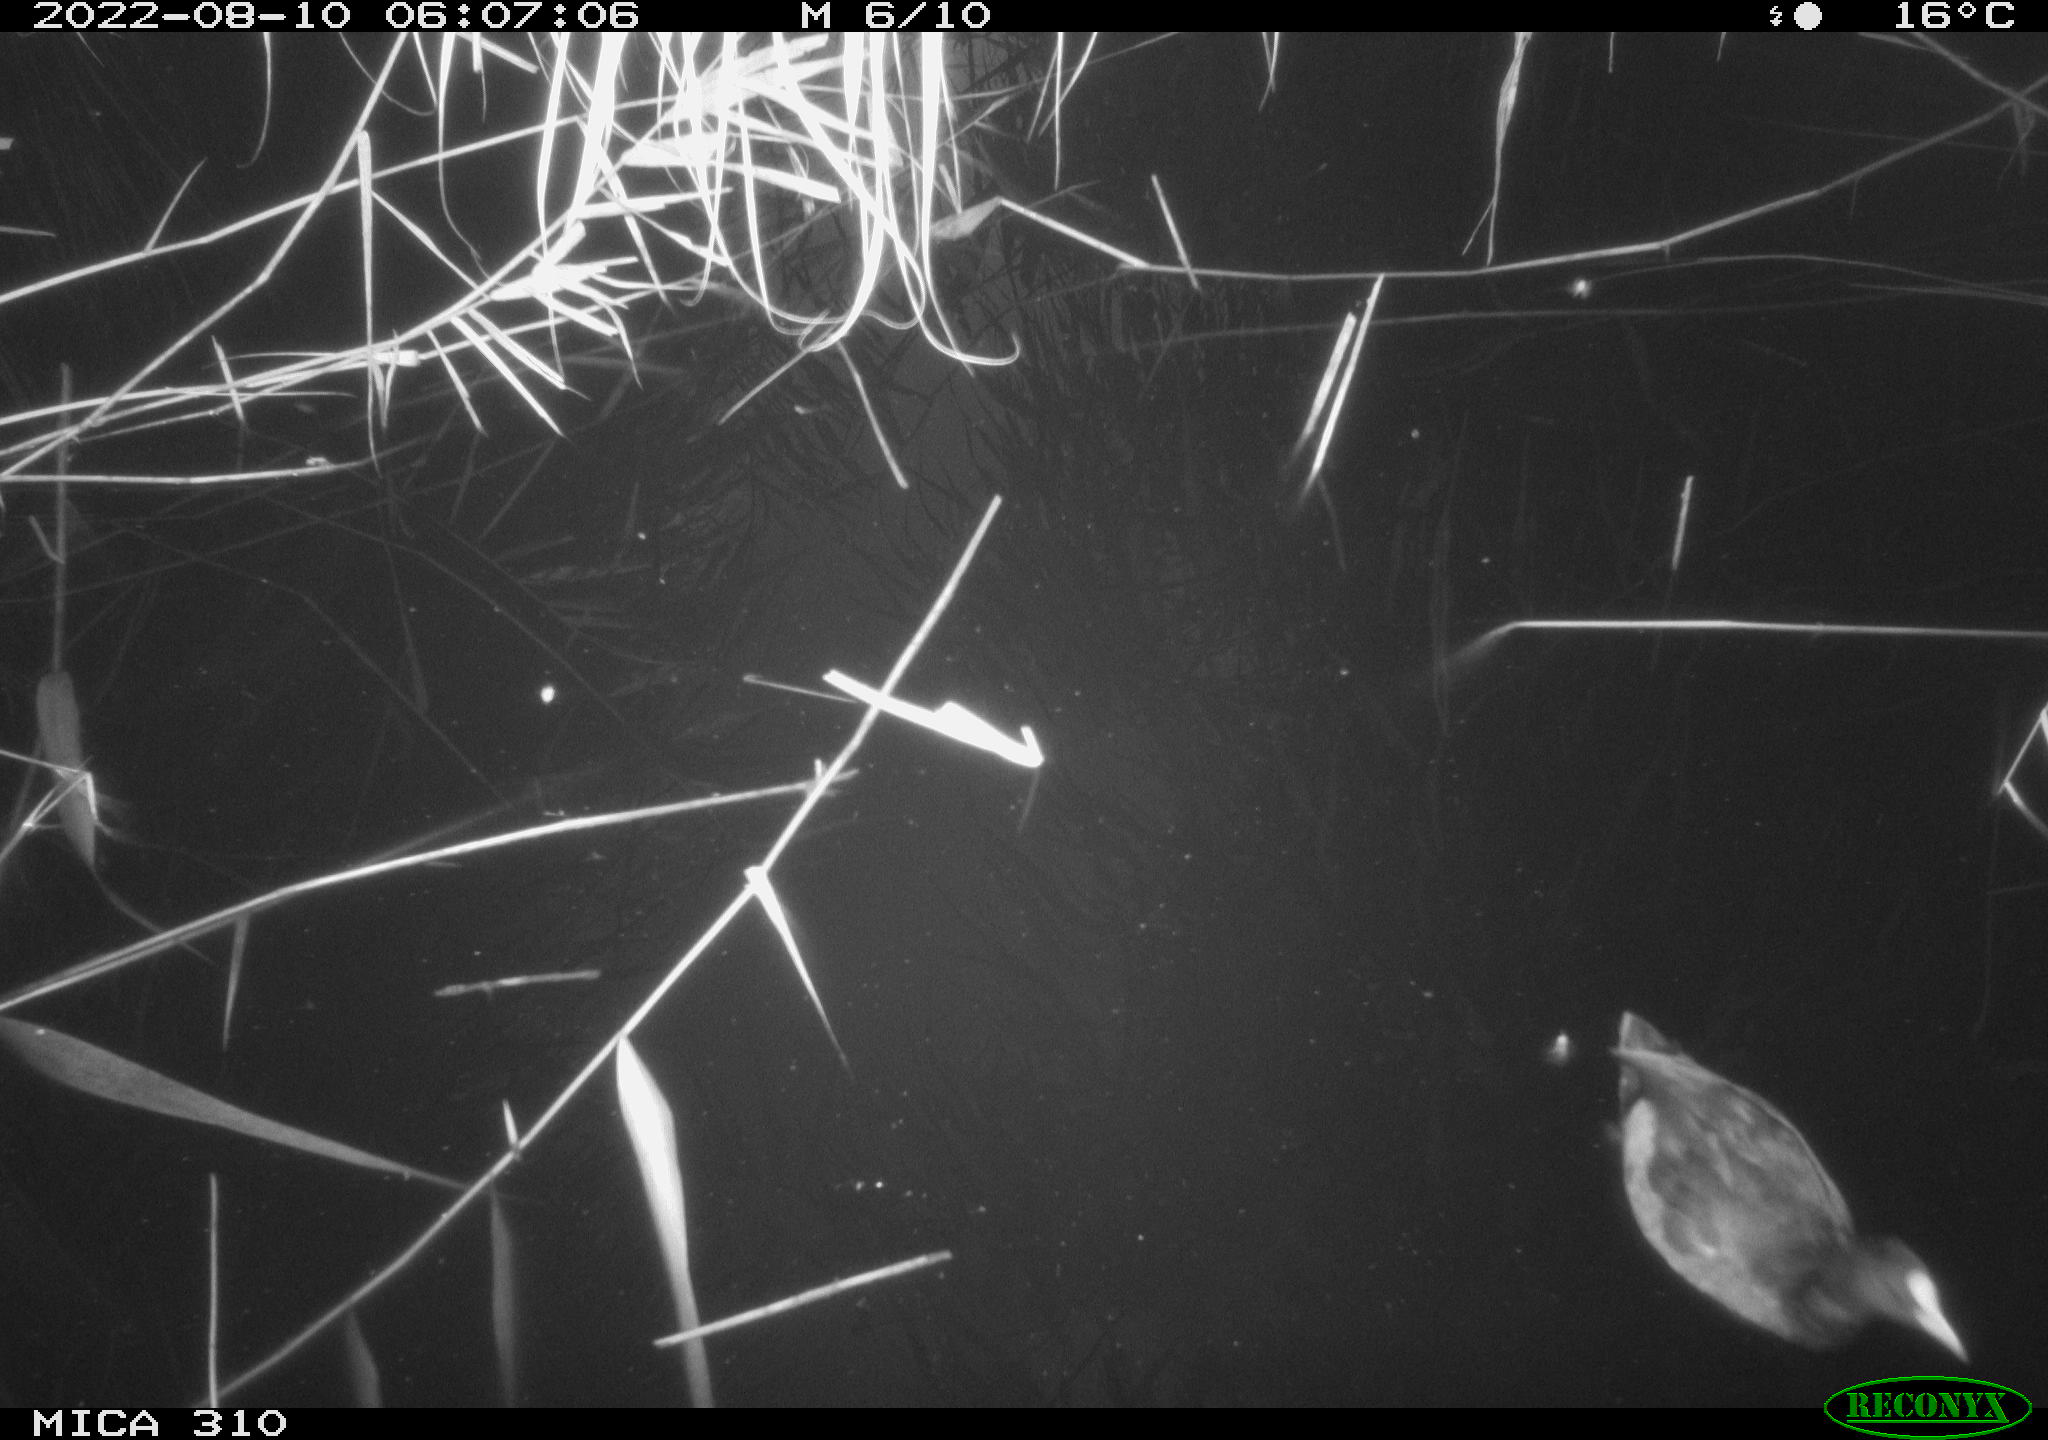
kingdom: Animalia
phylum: Chordata
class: Aves
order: Gruiformes
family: Rallidae
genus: Fulica
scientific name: Fulica atra
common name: Eurasian coot
